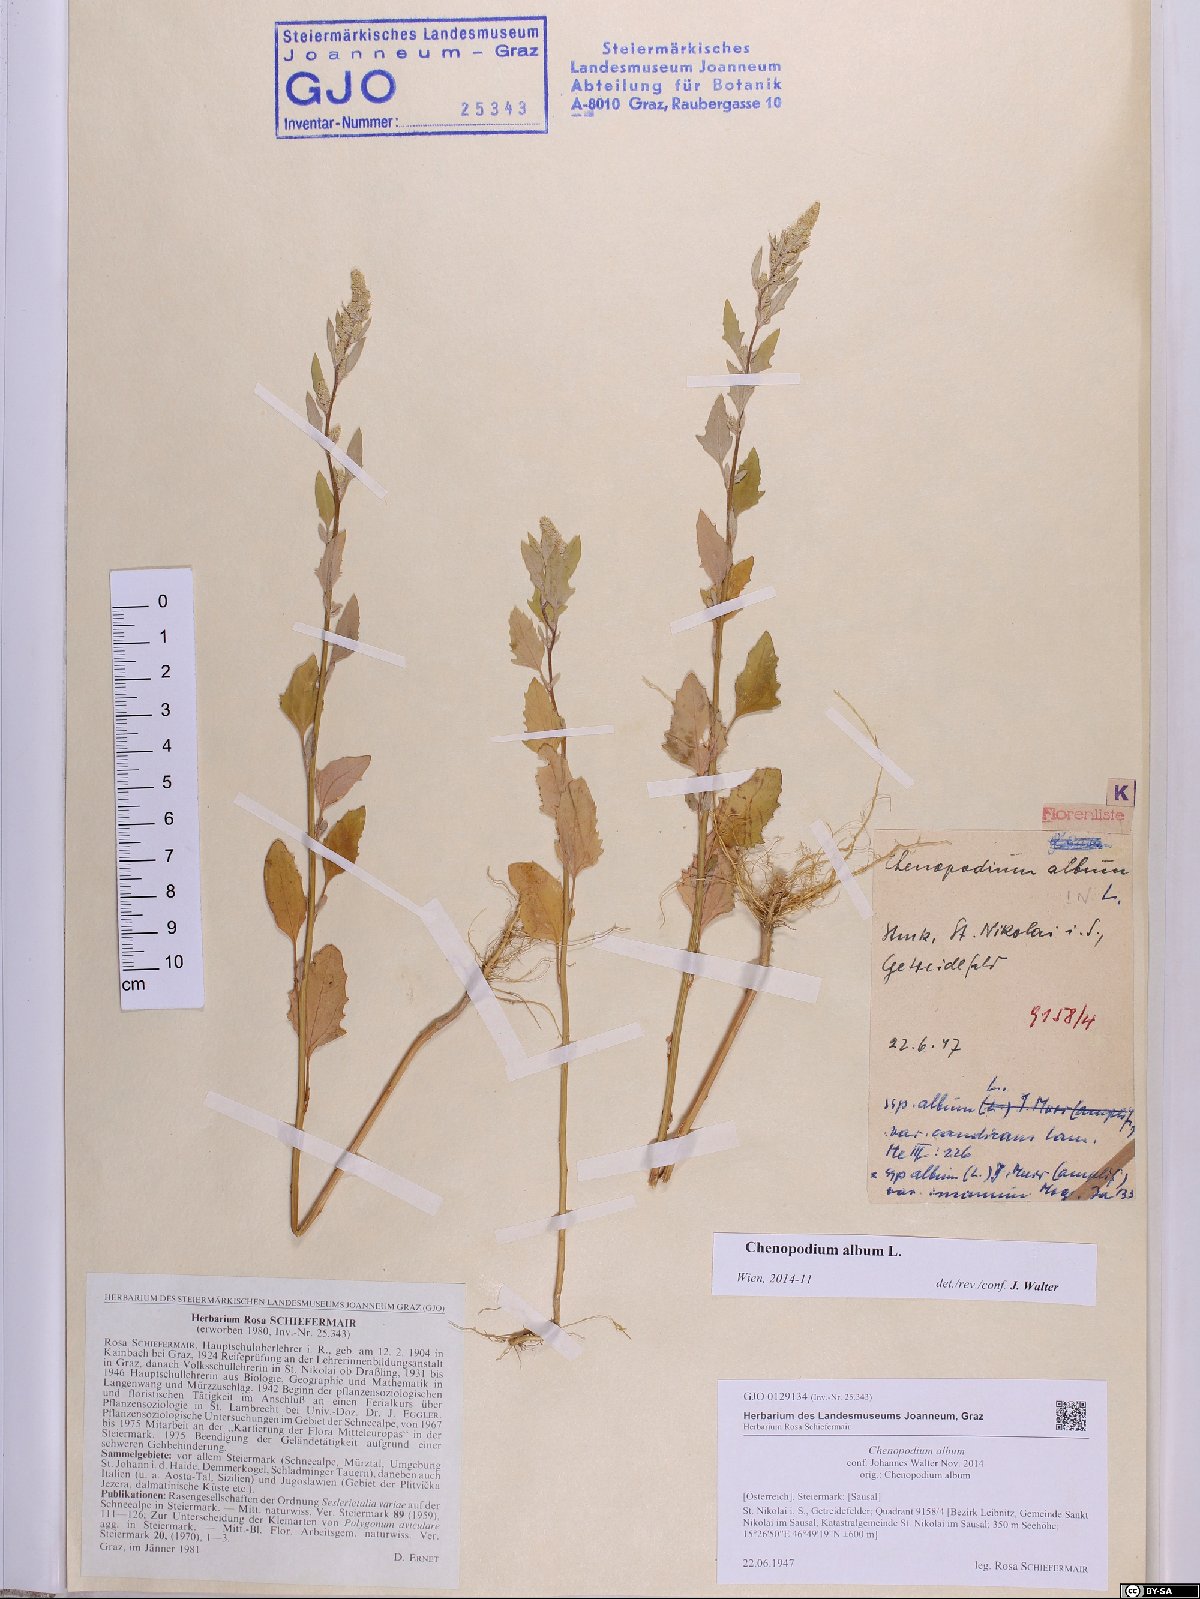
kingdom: Plantae
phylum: Tracheophyta
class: Magnoliopsida
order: Caryophyllales
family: Amaranthaceae
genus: Chenopodium
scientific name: Chenopodium album
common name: Fat-hen
